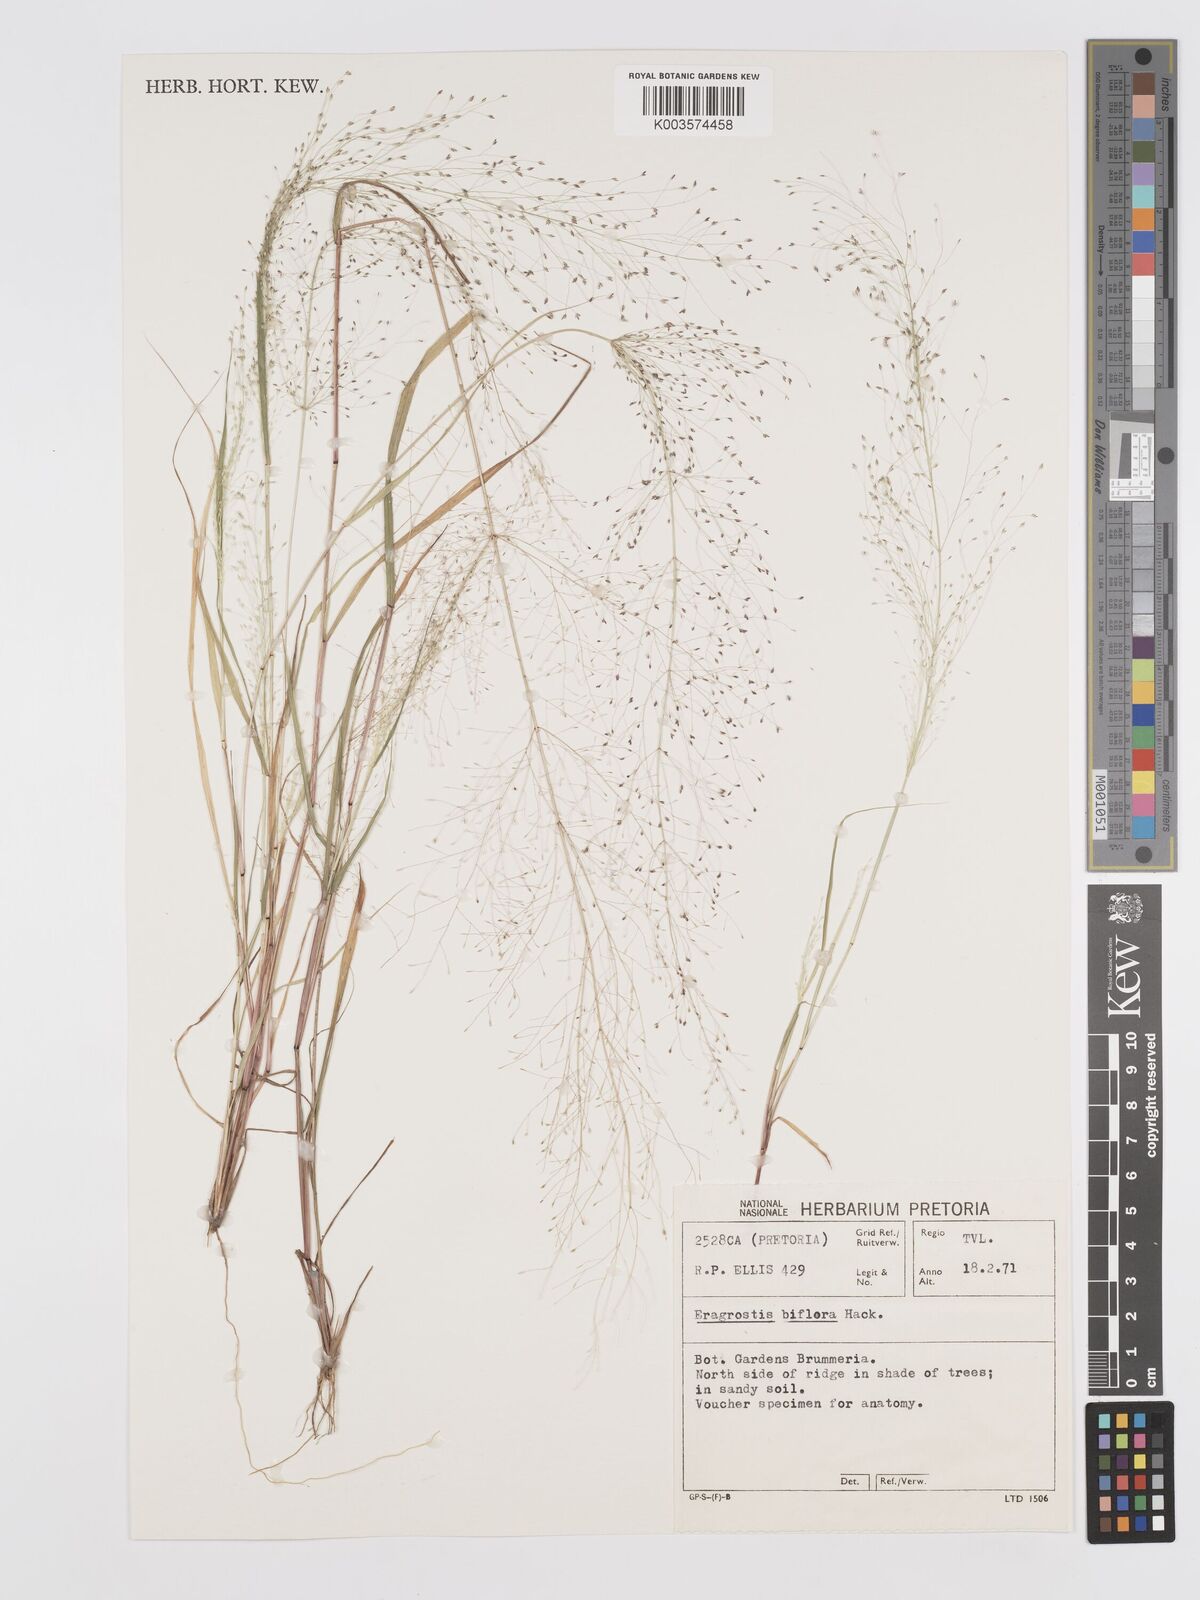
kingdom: Plantae
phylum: Tracheophyta
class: Liliopsida
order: Poales
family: Poaceae
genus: Eragrostis
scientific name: Eragrostis biflora
